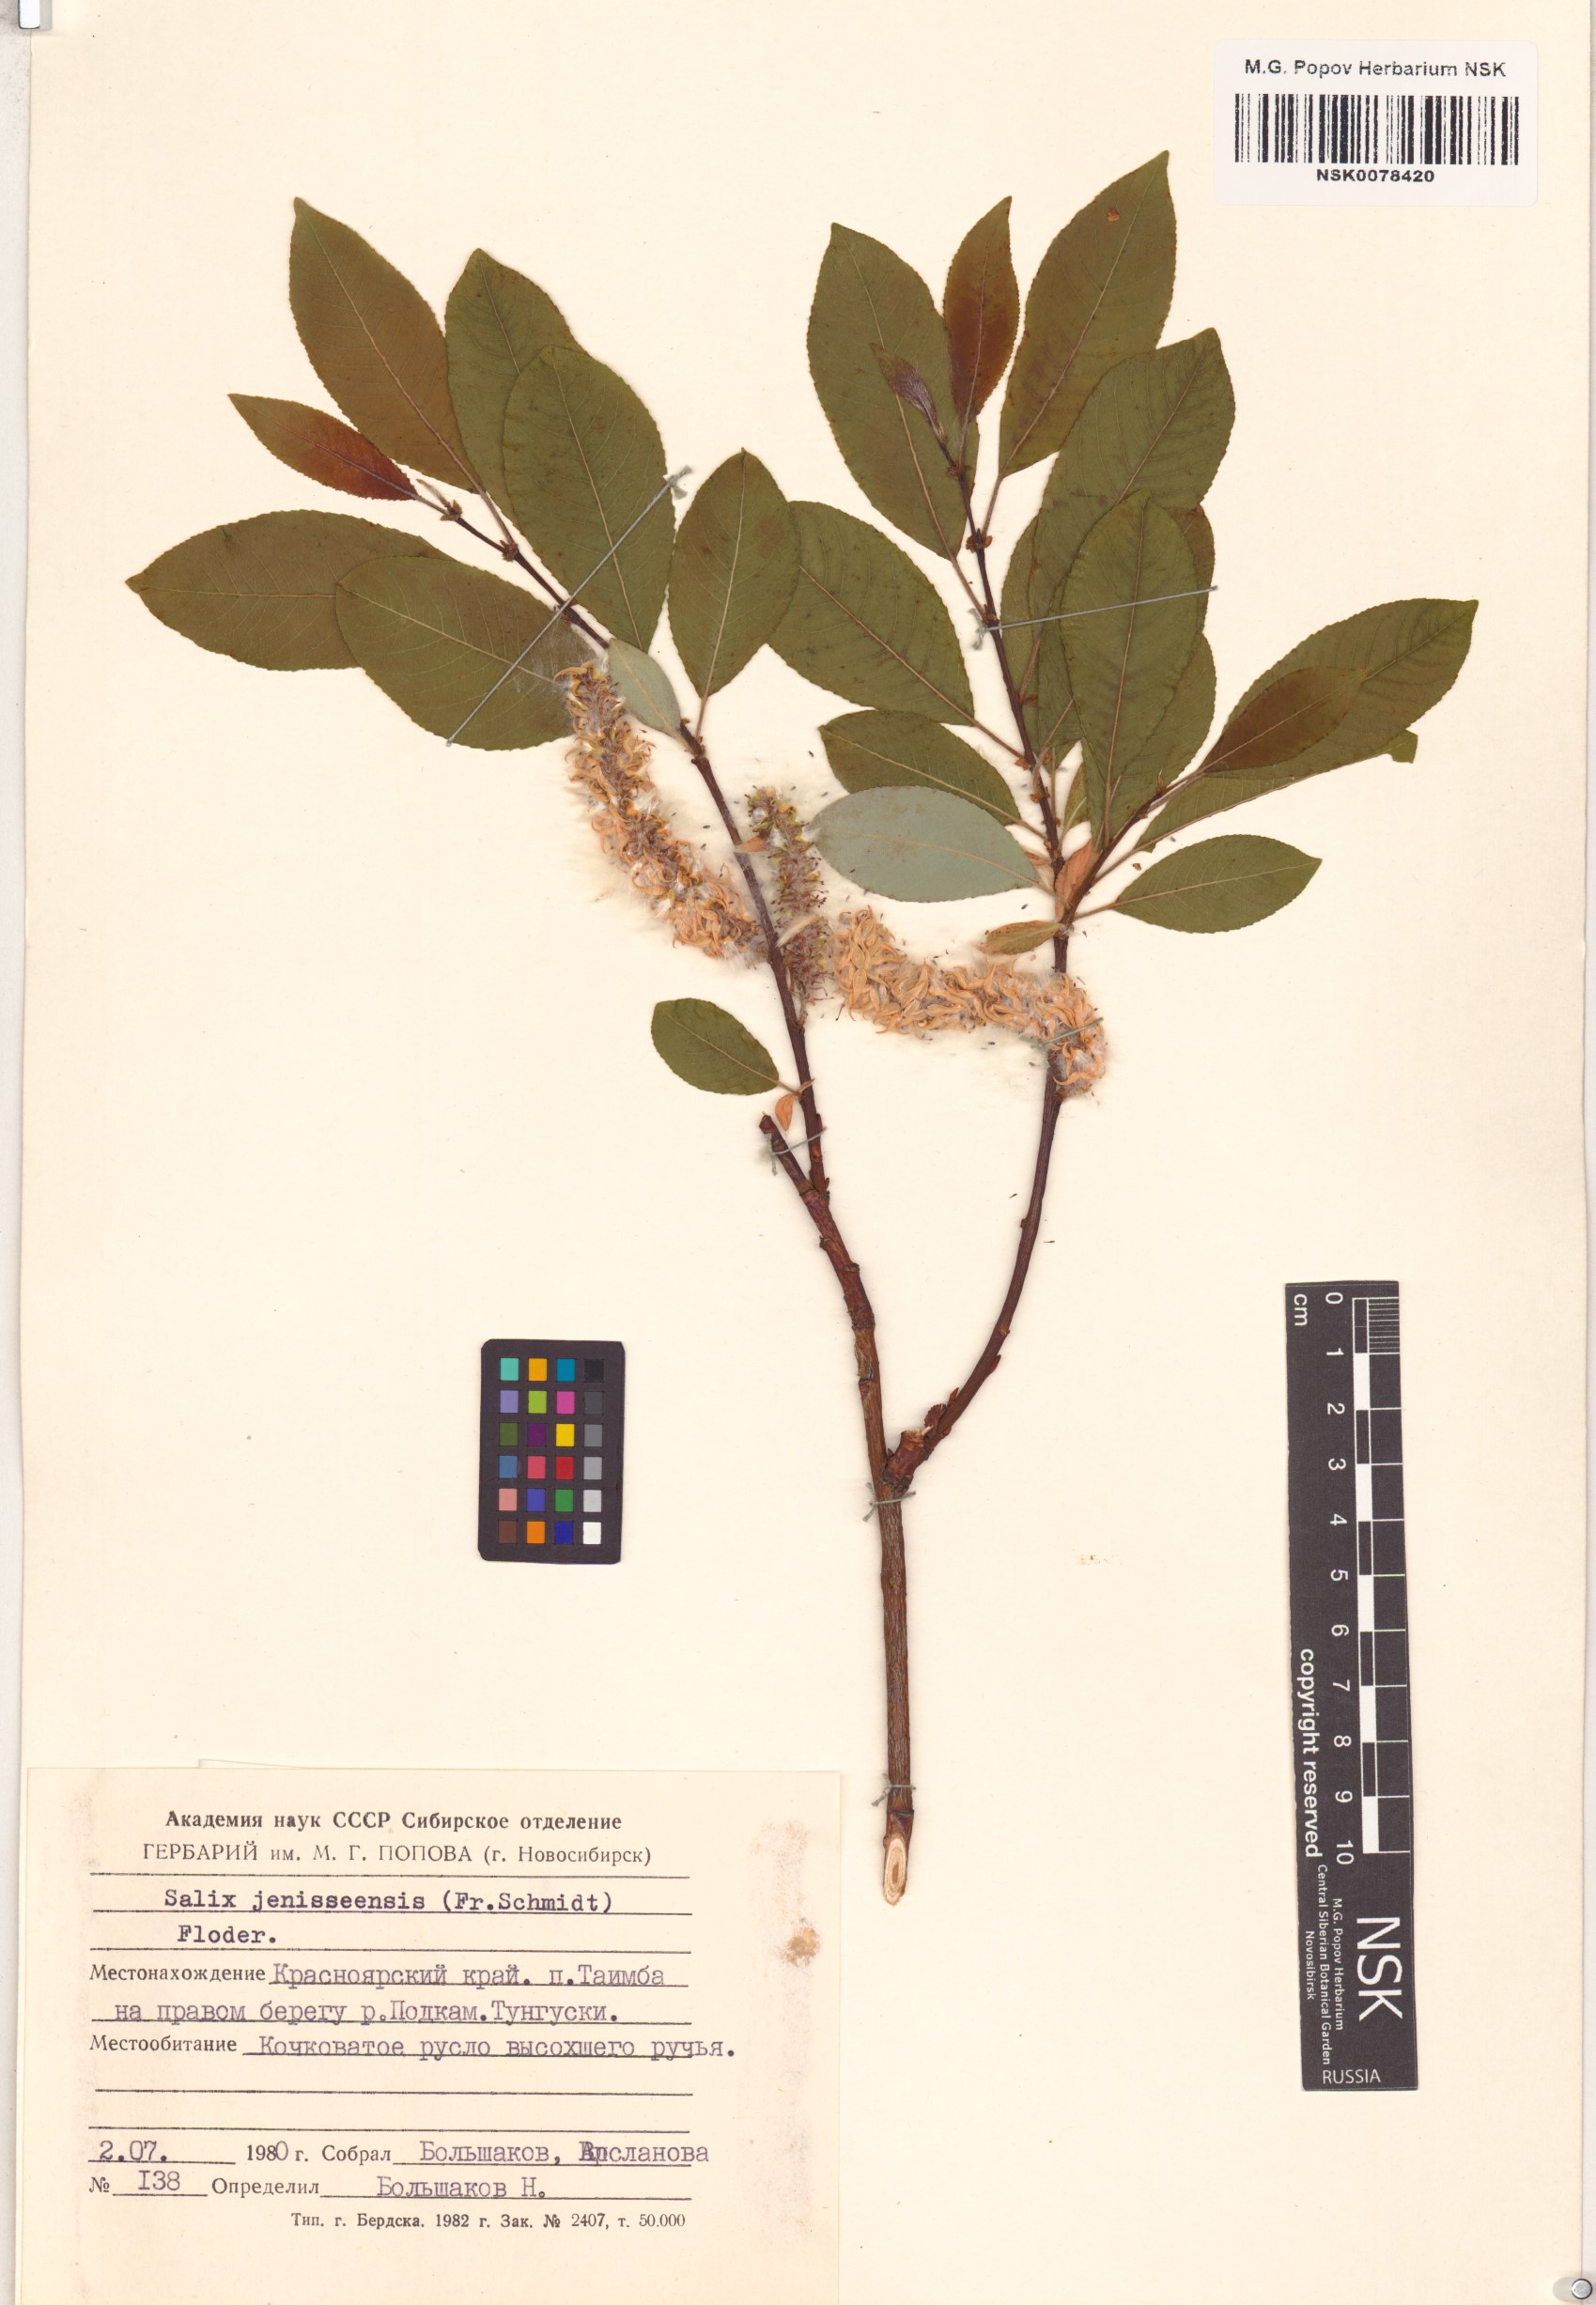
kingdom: Plantae
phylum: Tracheophyta
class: Magnoliopsida
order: Malpighiales
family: Salicaceae
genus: Salix
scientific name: Salix jenisseensis
